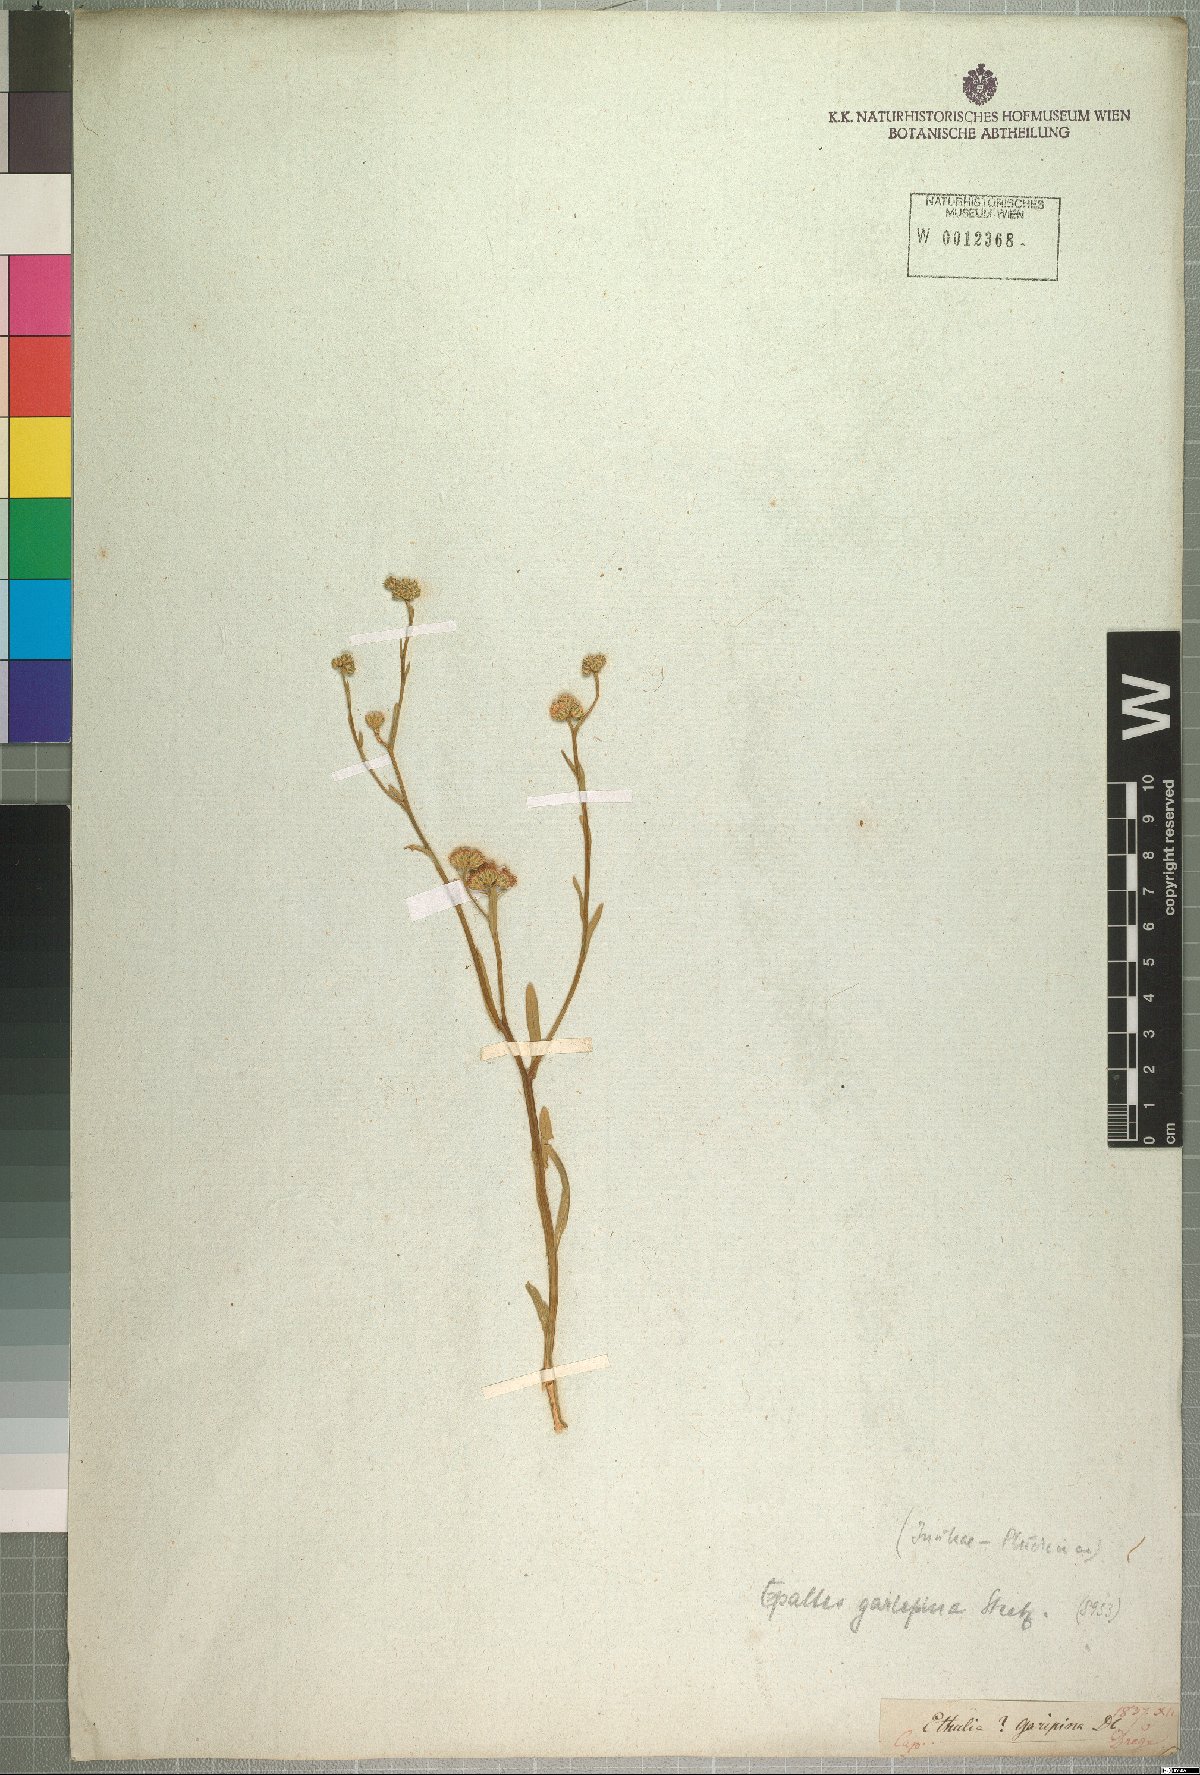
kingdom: Plantae
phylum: Tracheophyta
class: Magnoliopsida
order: Asterales
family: Asteraceae
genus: Litogyne
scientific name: Litogyne gariepina
